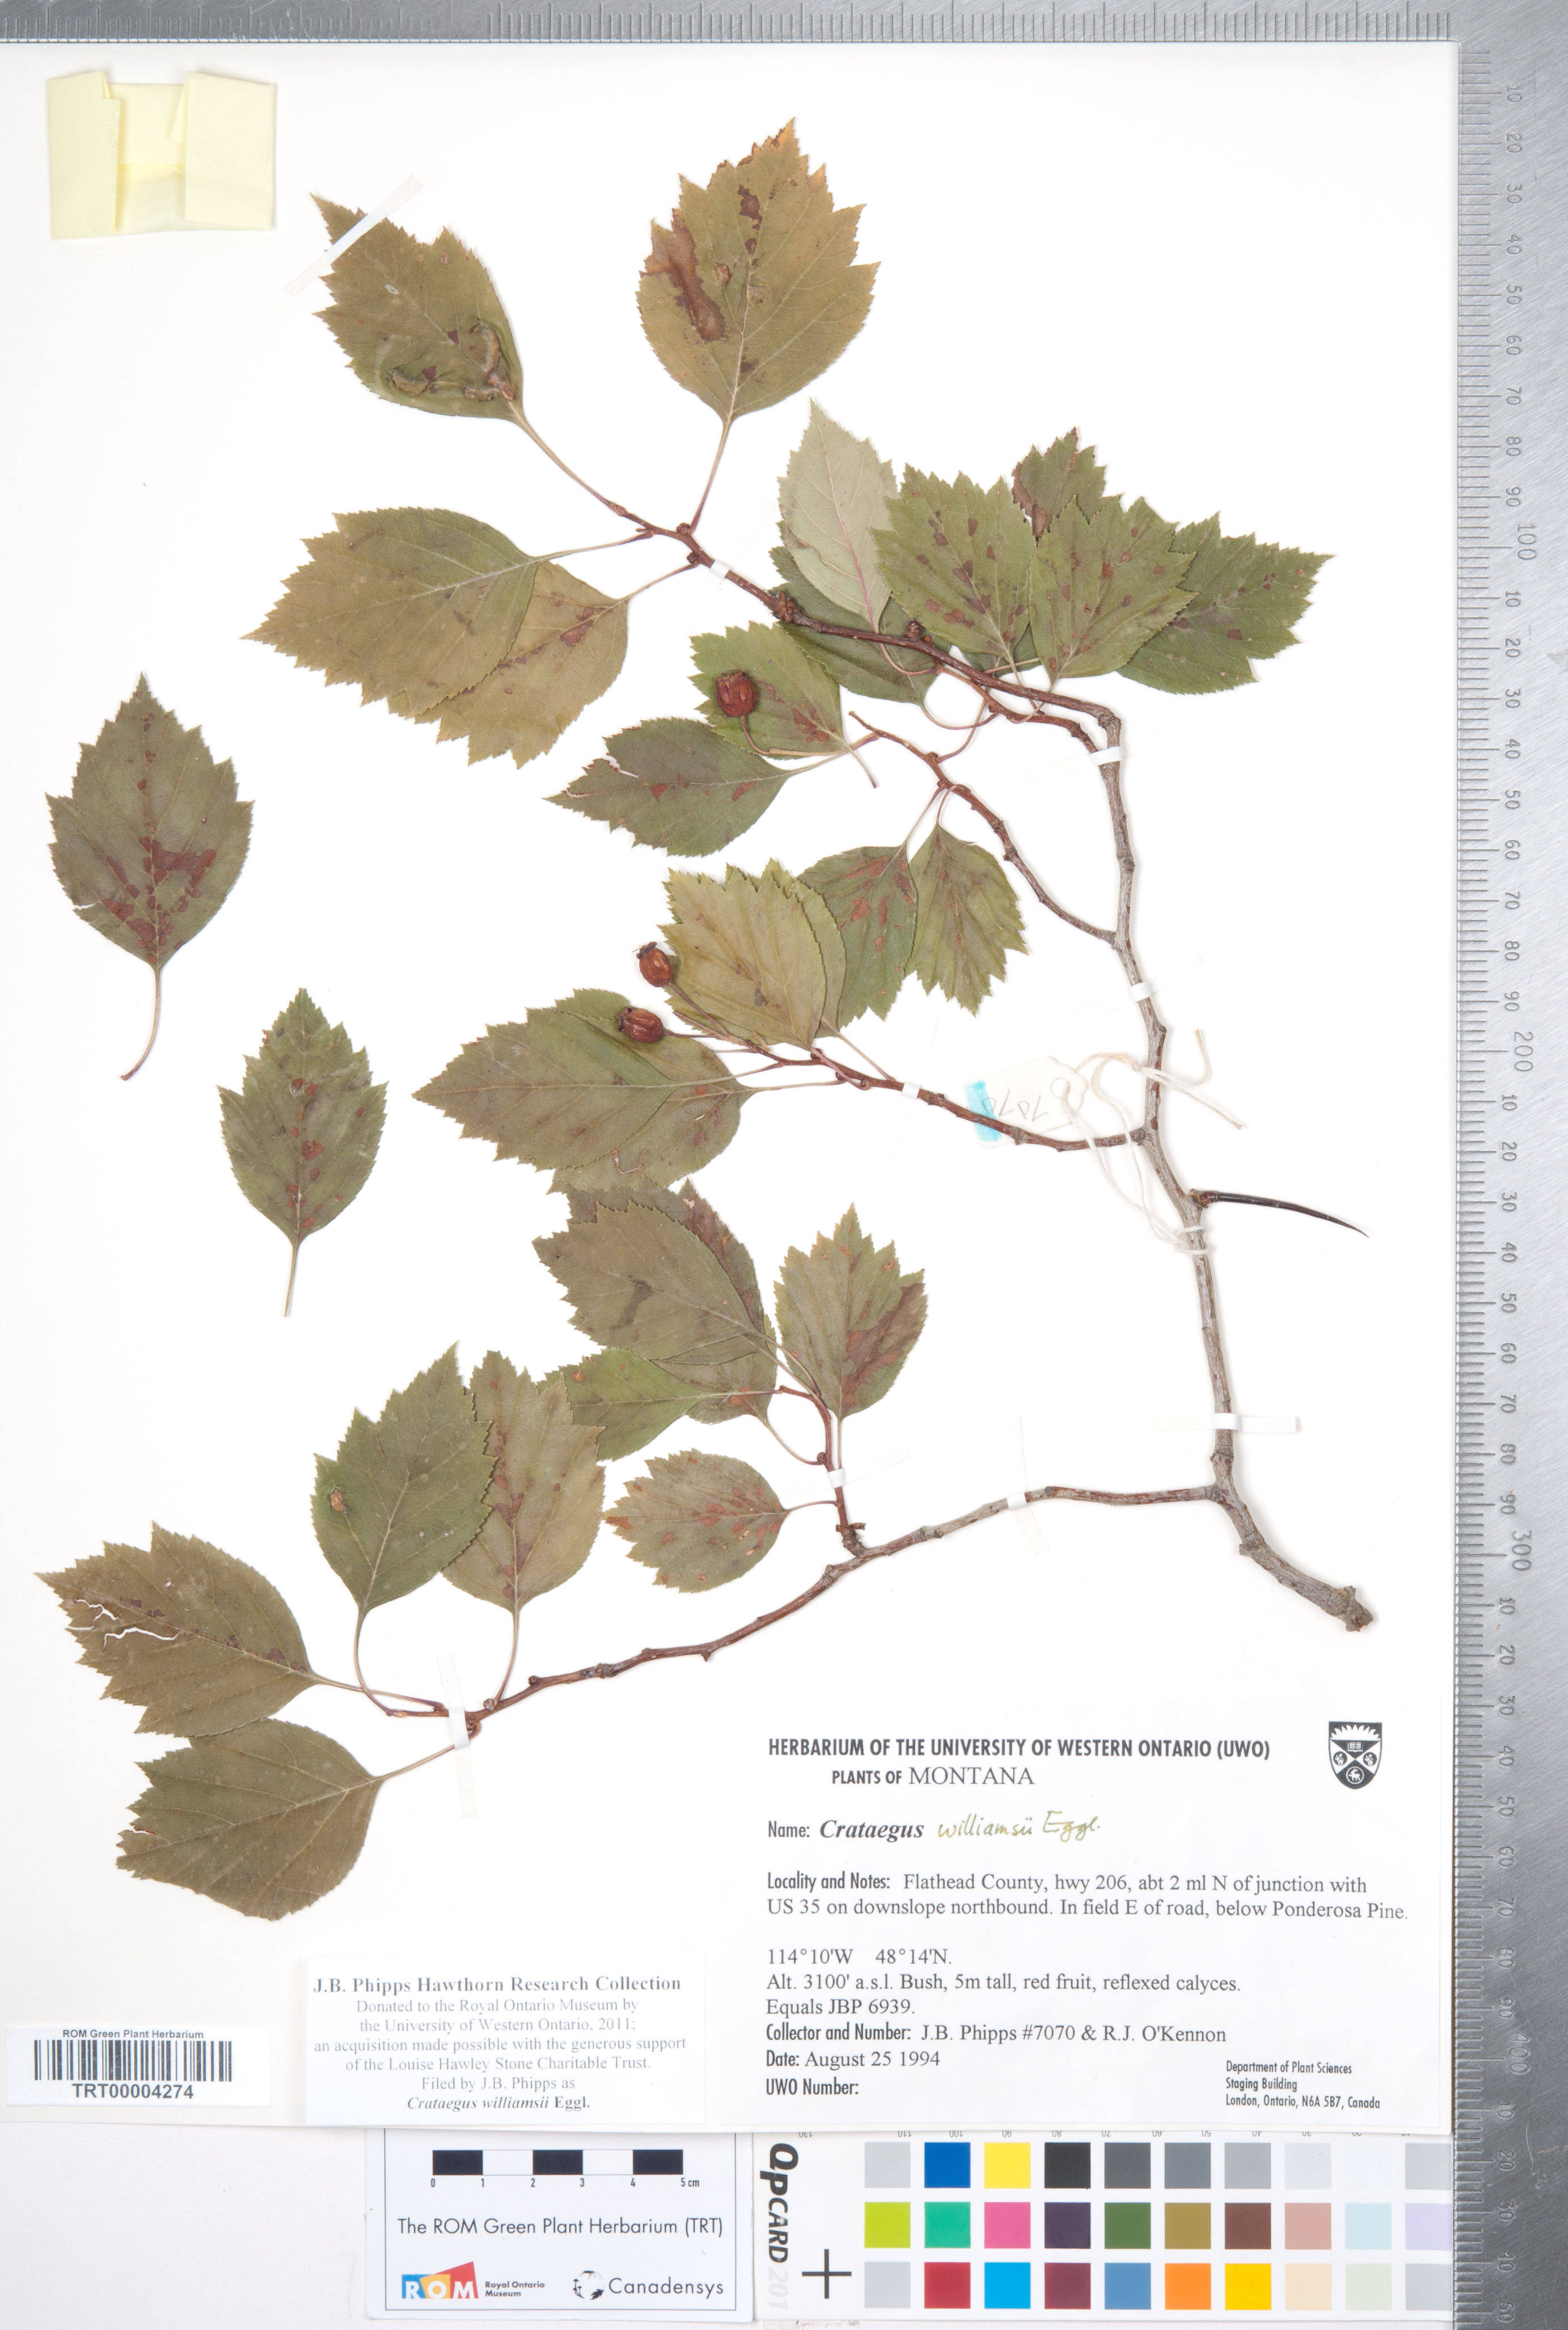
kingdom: Plantae
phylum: Tracheophyta
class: Magnoliopsida
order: Rosales
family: Rosaceae
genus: Crataegus
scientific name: Crataegus williamsii
